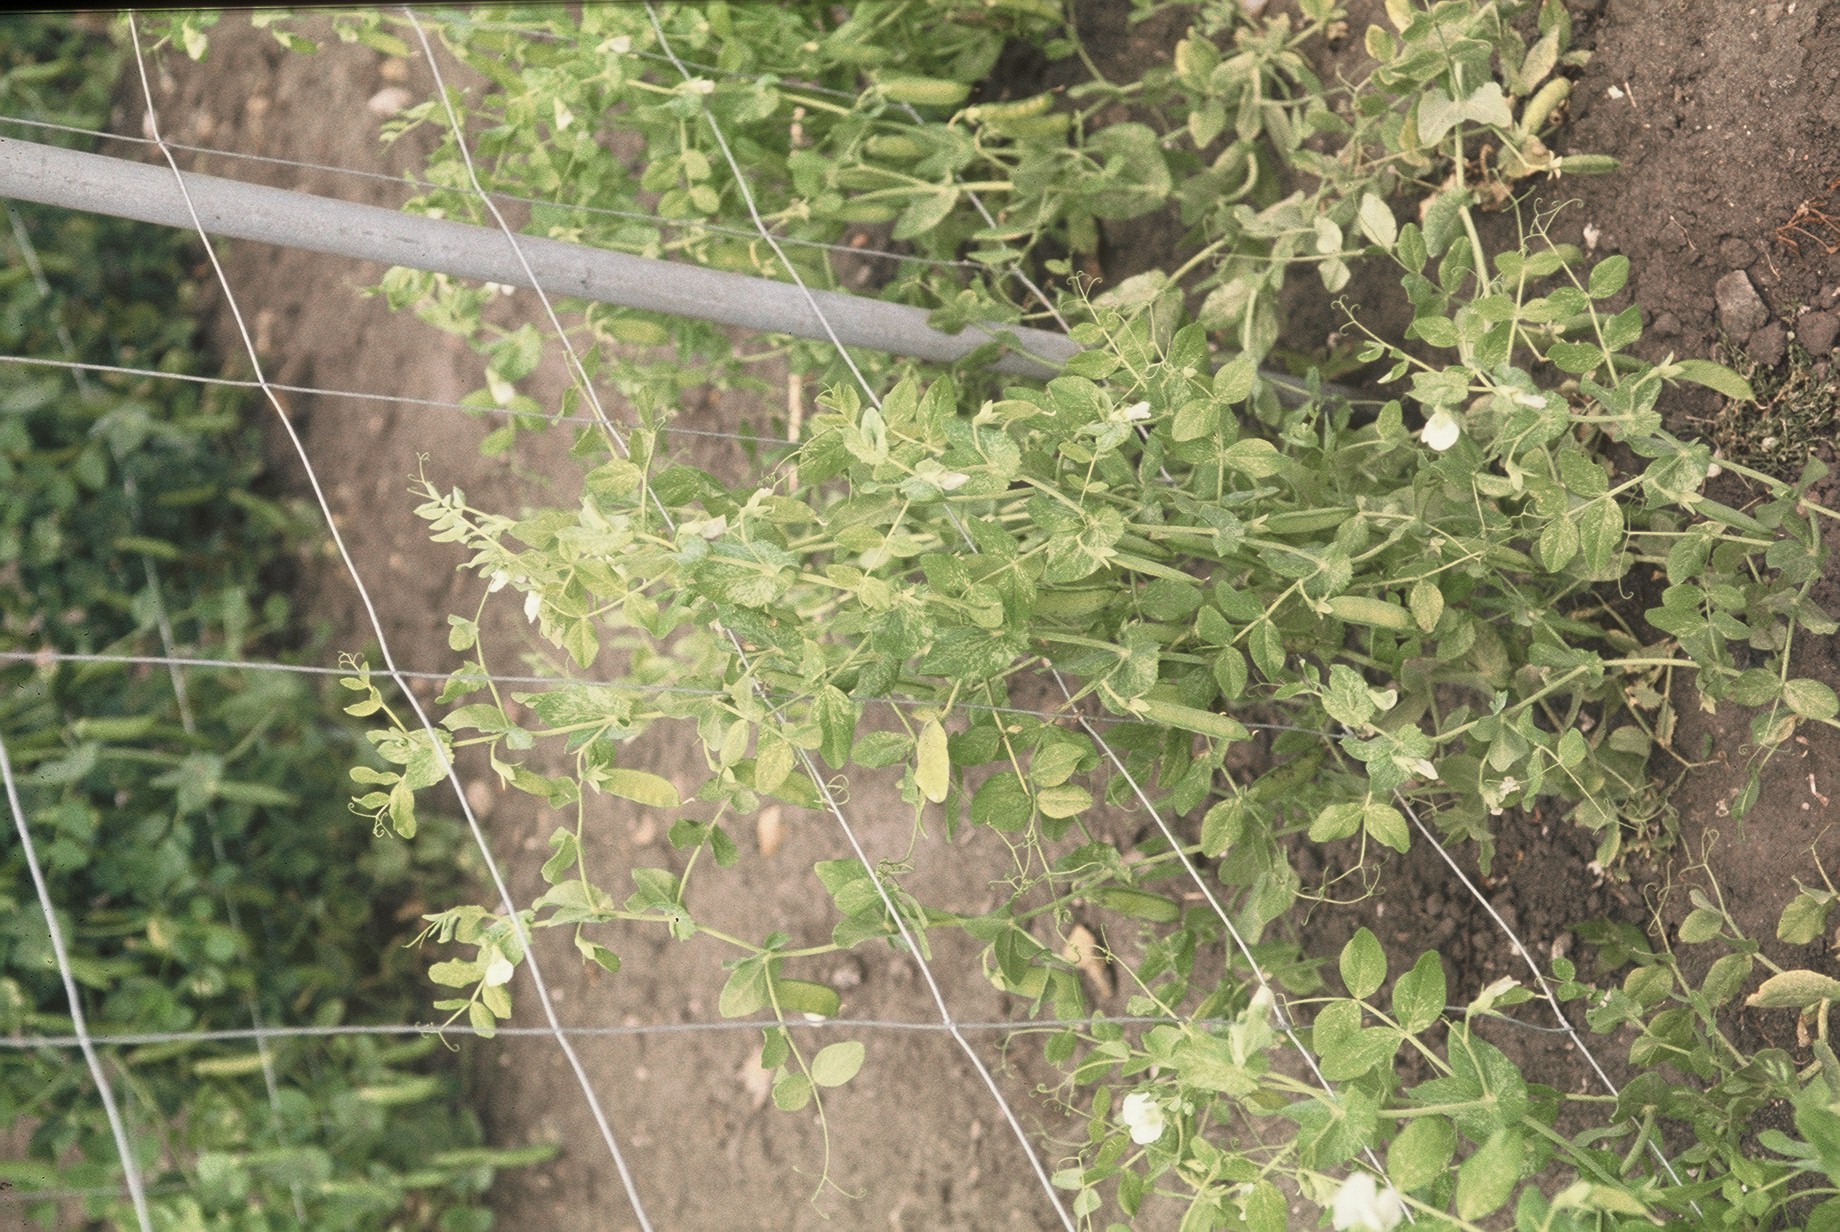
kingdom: Plantae
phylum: Tracheophyta
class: Magnoliopsida
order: Fabales
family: Fabaceae
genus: Lathyrus
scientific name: Lathyrus oleraceus
